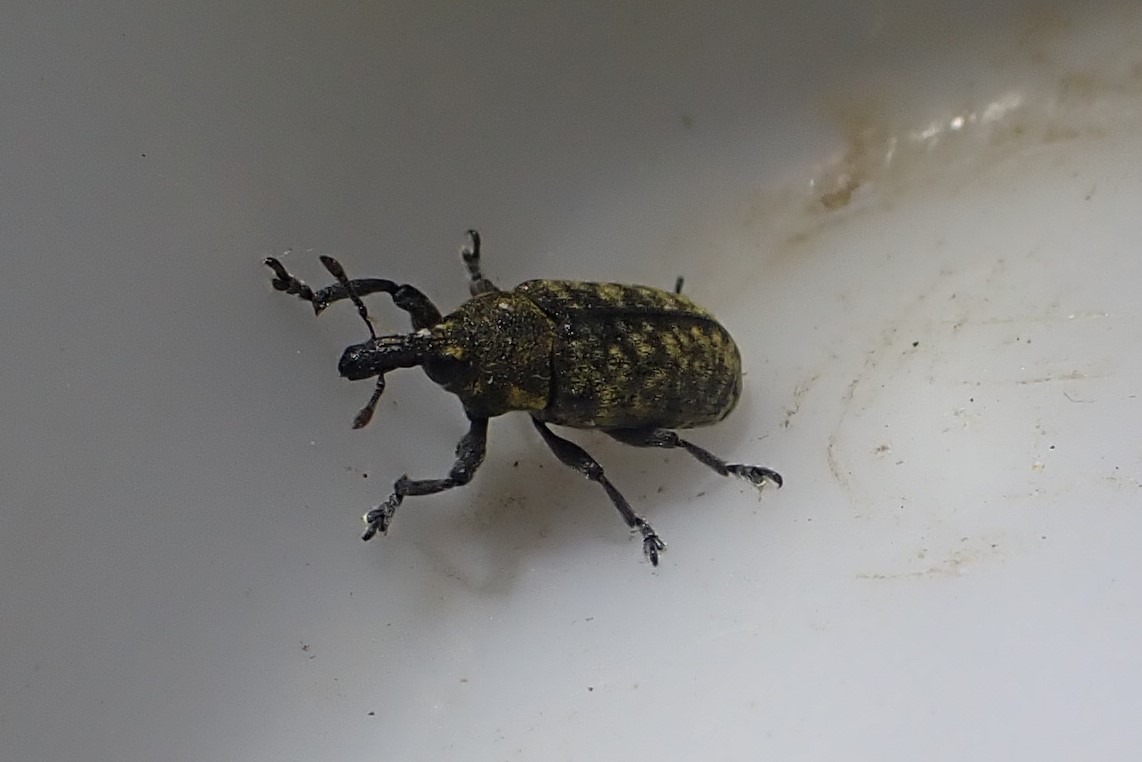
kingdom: Animalia
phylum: Arthropoda
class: Insecta
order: Coleoptera
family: Curculionidae
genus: Larinus
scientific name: Larinus carlinae
